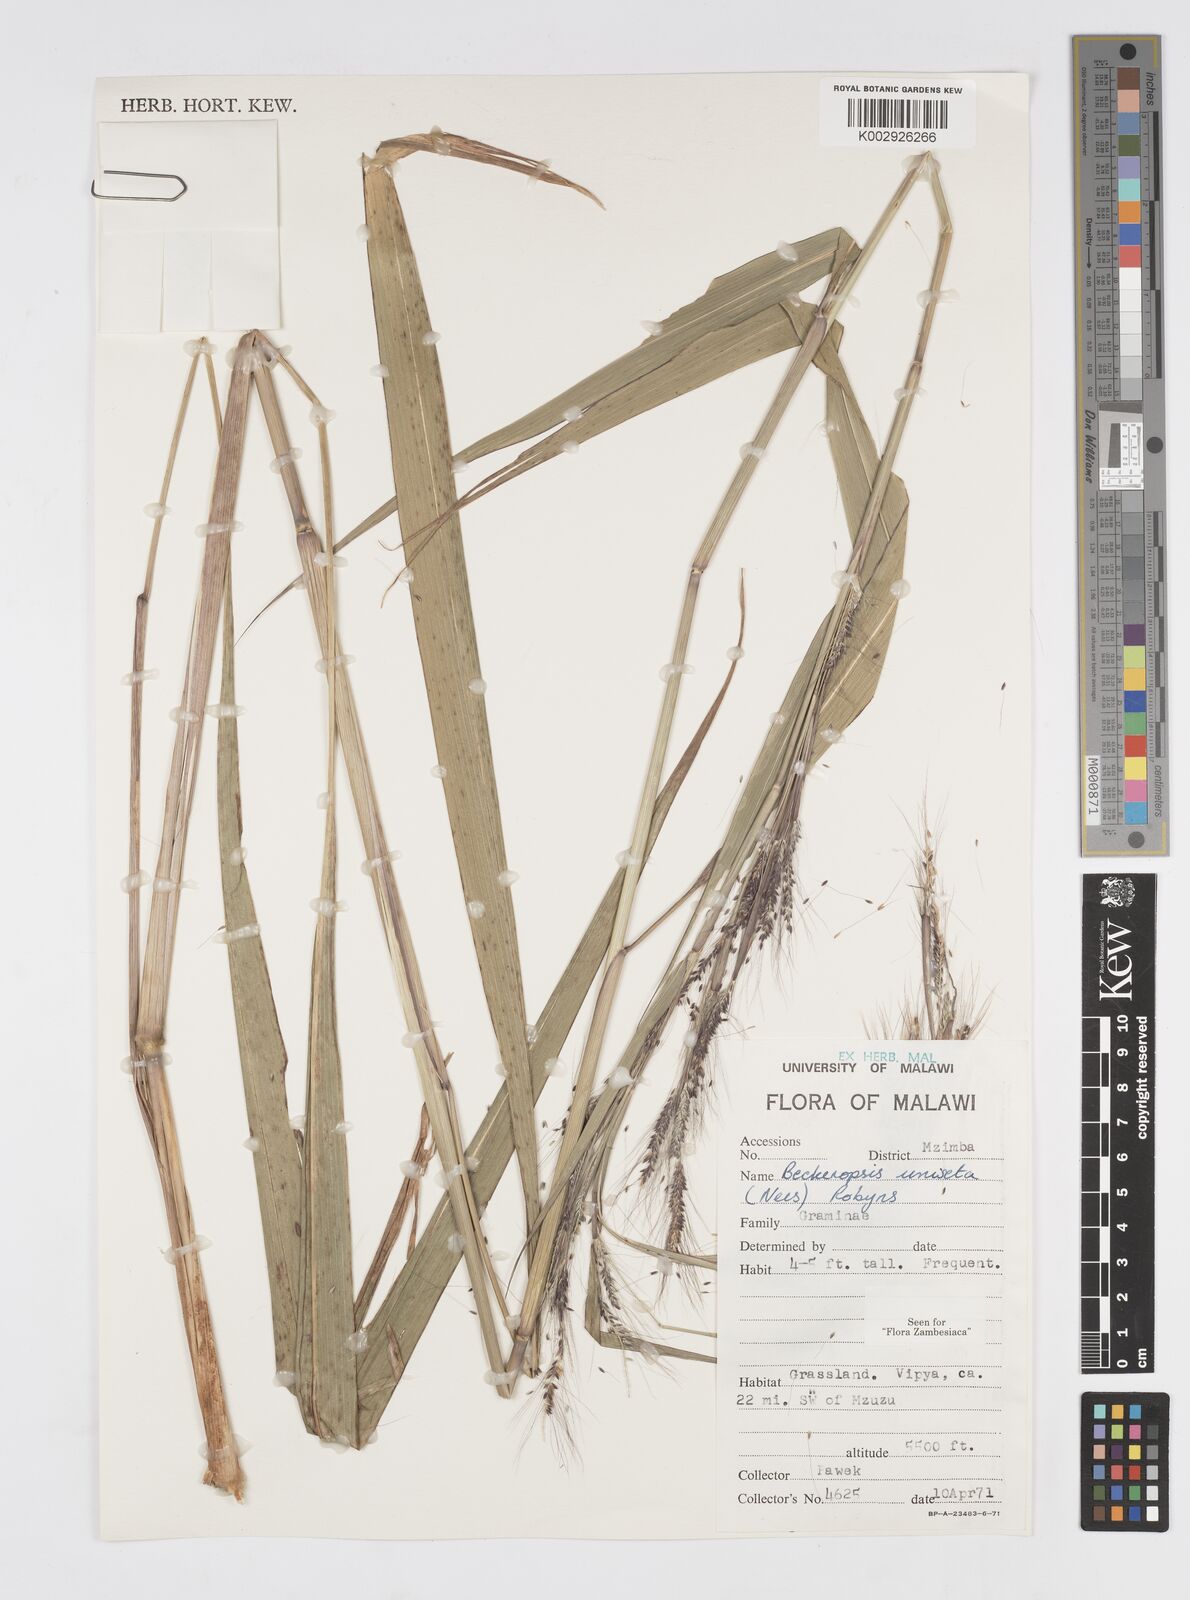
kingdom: Plantae
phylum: Tracheophyta
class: Liliopsida
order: Poales
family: Poaceae
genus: Cenchrus
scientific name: Cenchrus unisetus
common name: Natal grass
